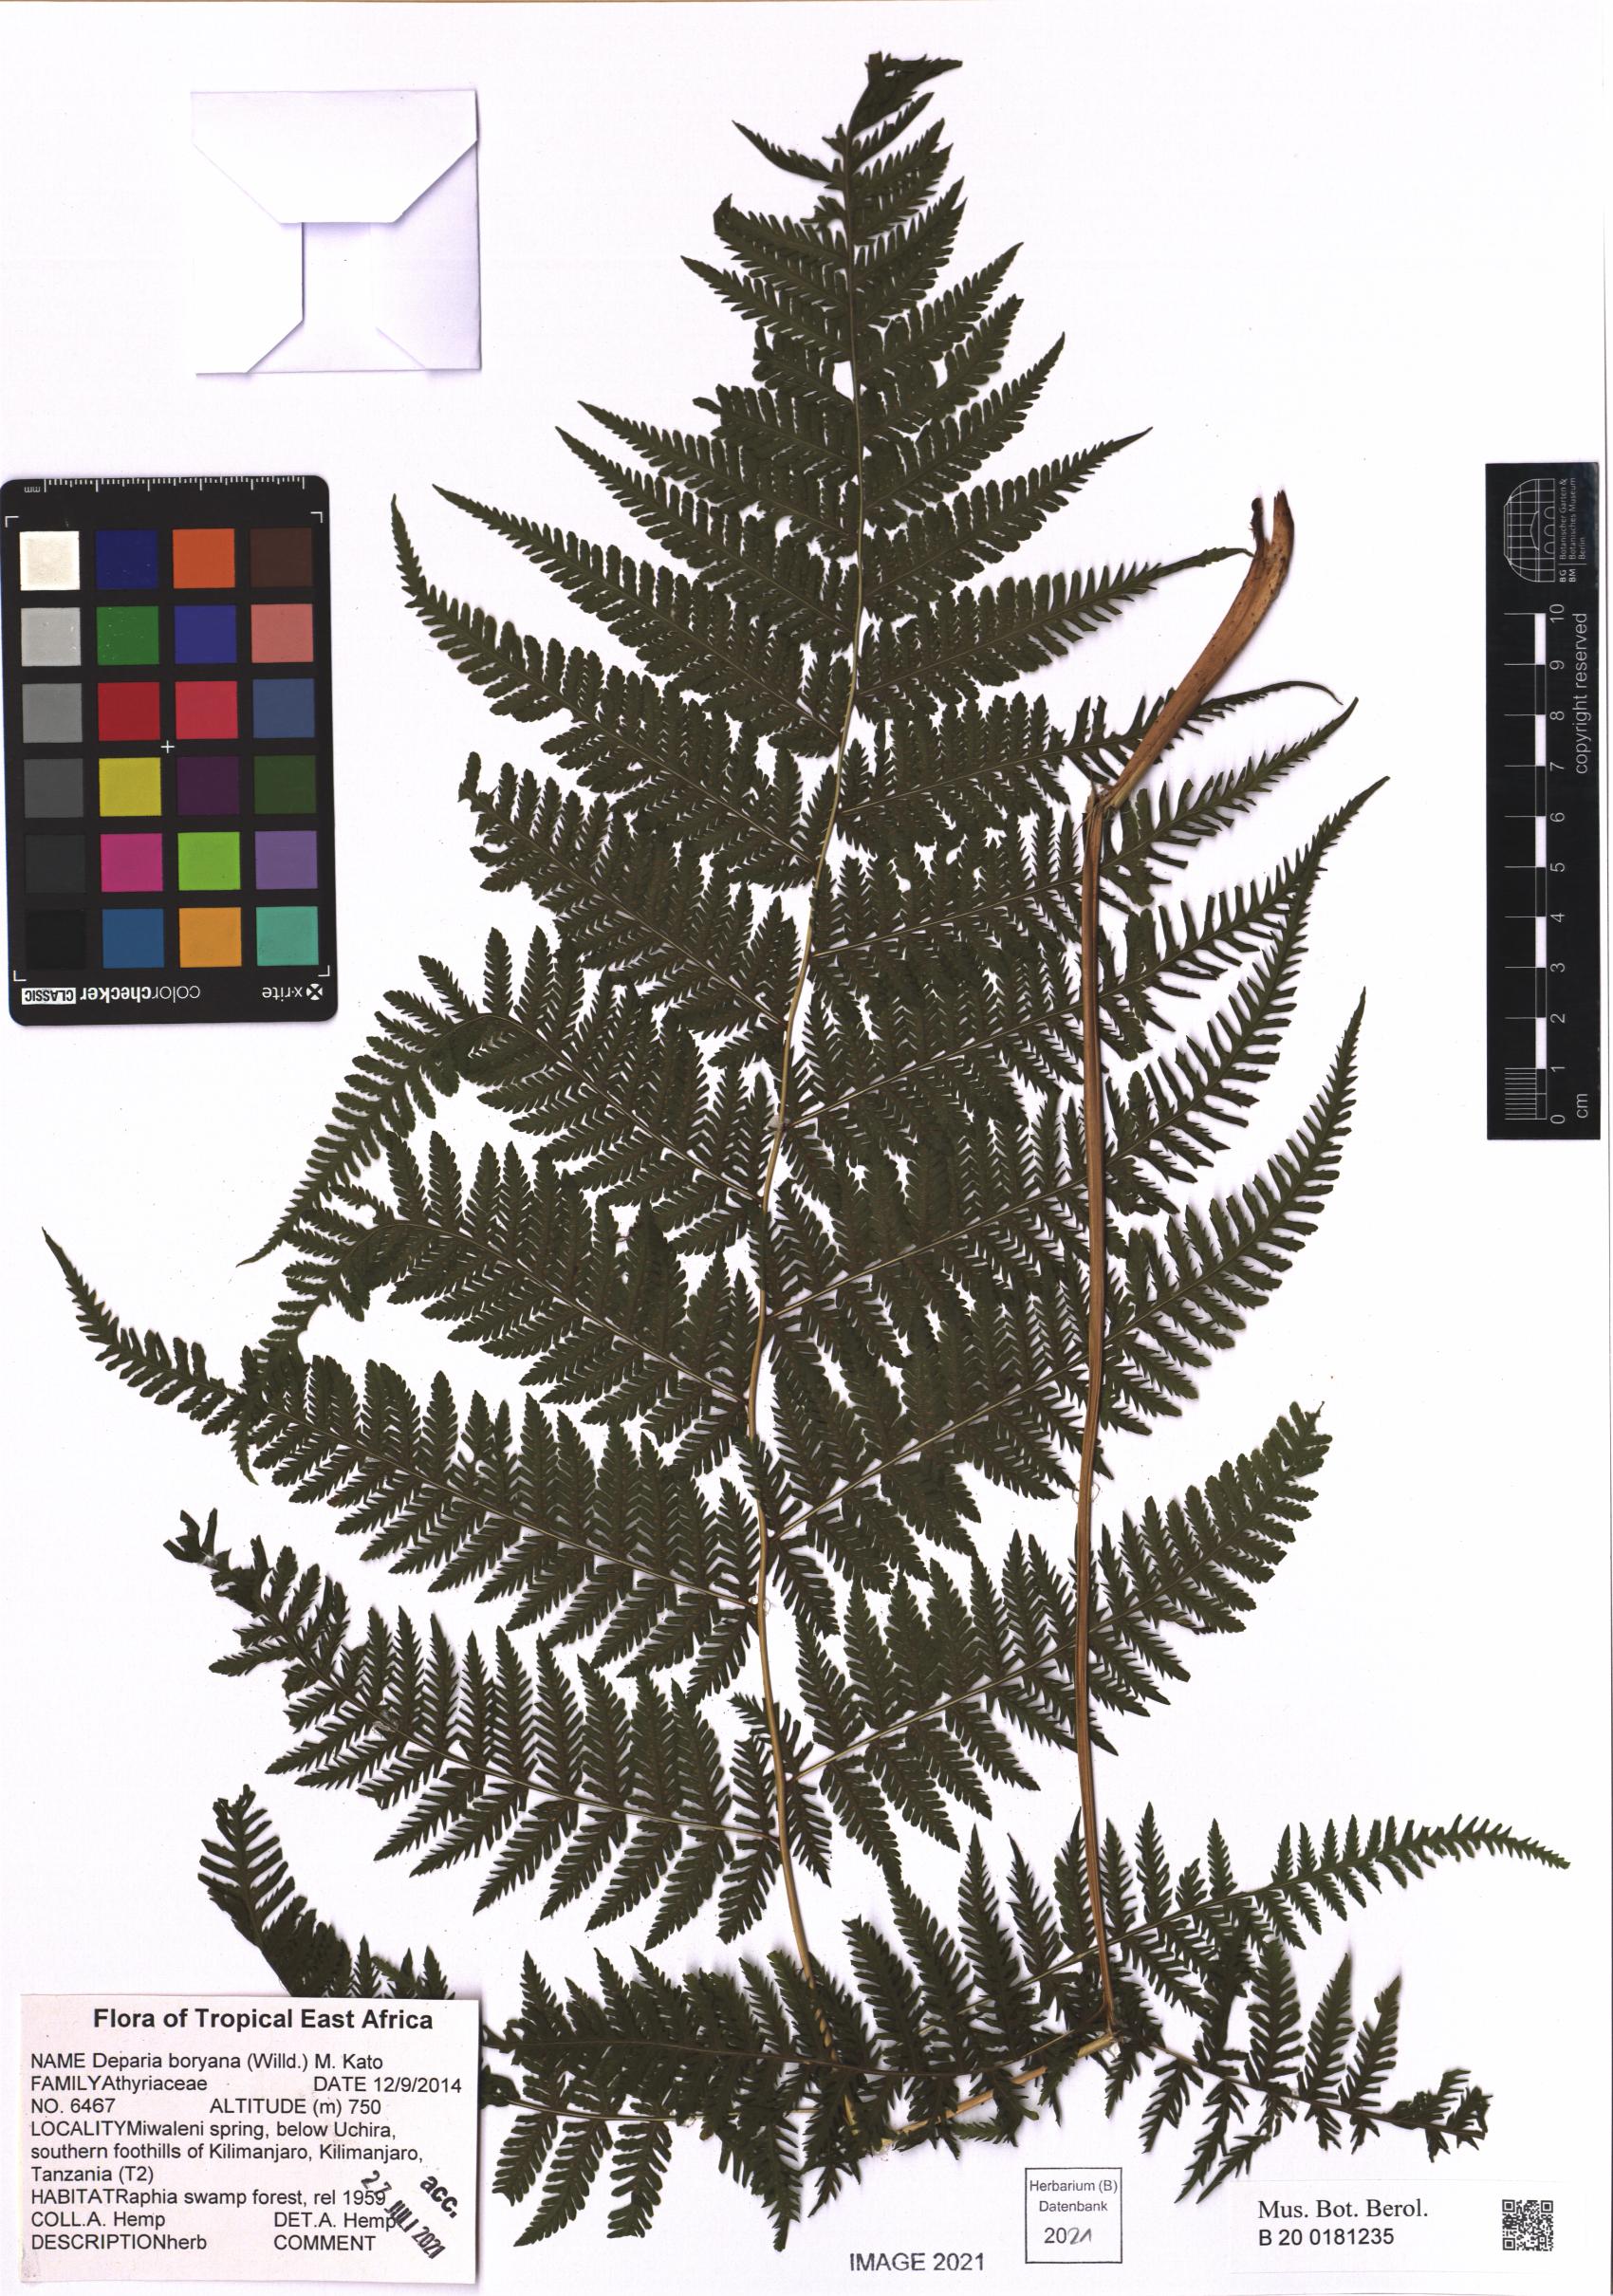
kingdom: Plantae
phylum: Tracheophyta
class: Polypodiopsida
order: Polypodiales
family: Athyriaceae
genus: Deparia
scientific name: Deparia boryana
